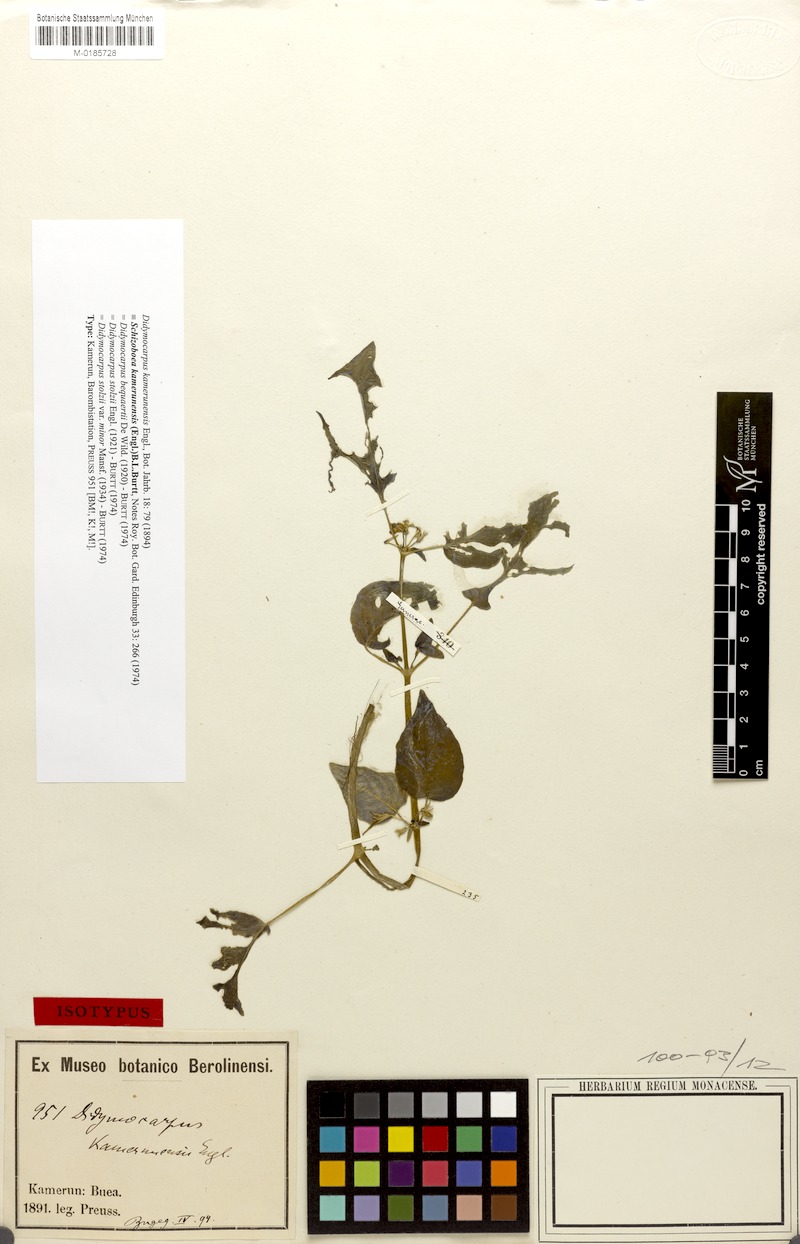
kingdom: Plantae
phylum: Tracheophyta
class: Magnoliopsida
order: Lamiales
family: Gesneriaceae
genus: Streptocarpus
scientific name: Streptocarpus kamerunensis
